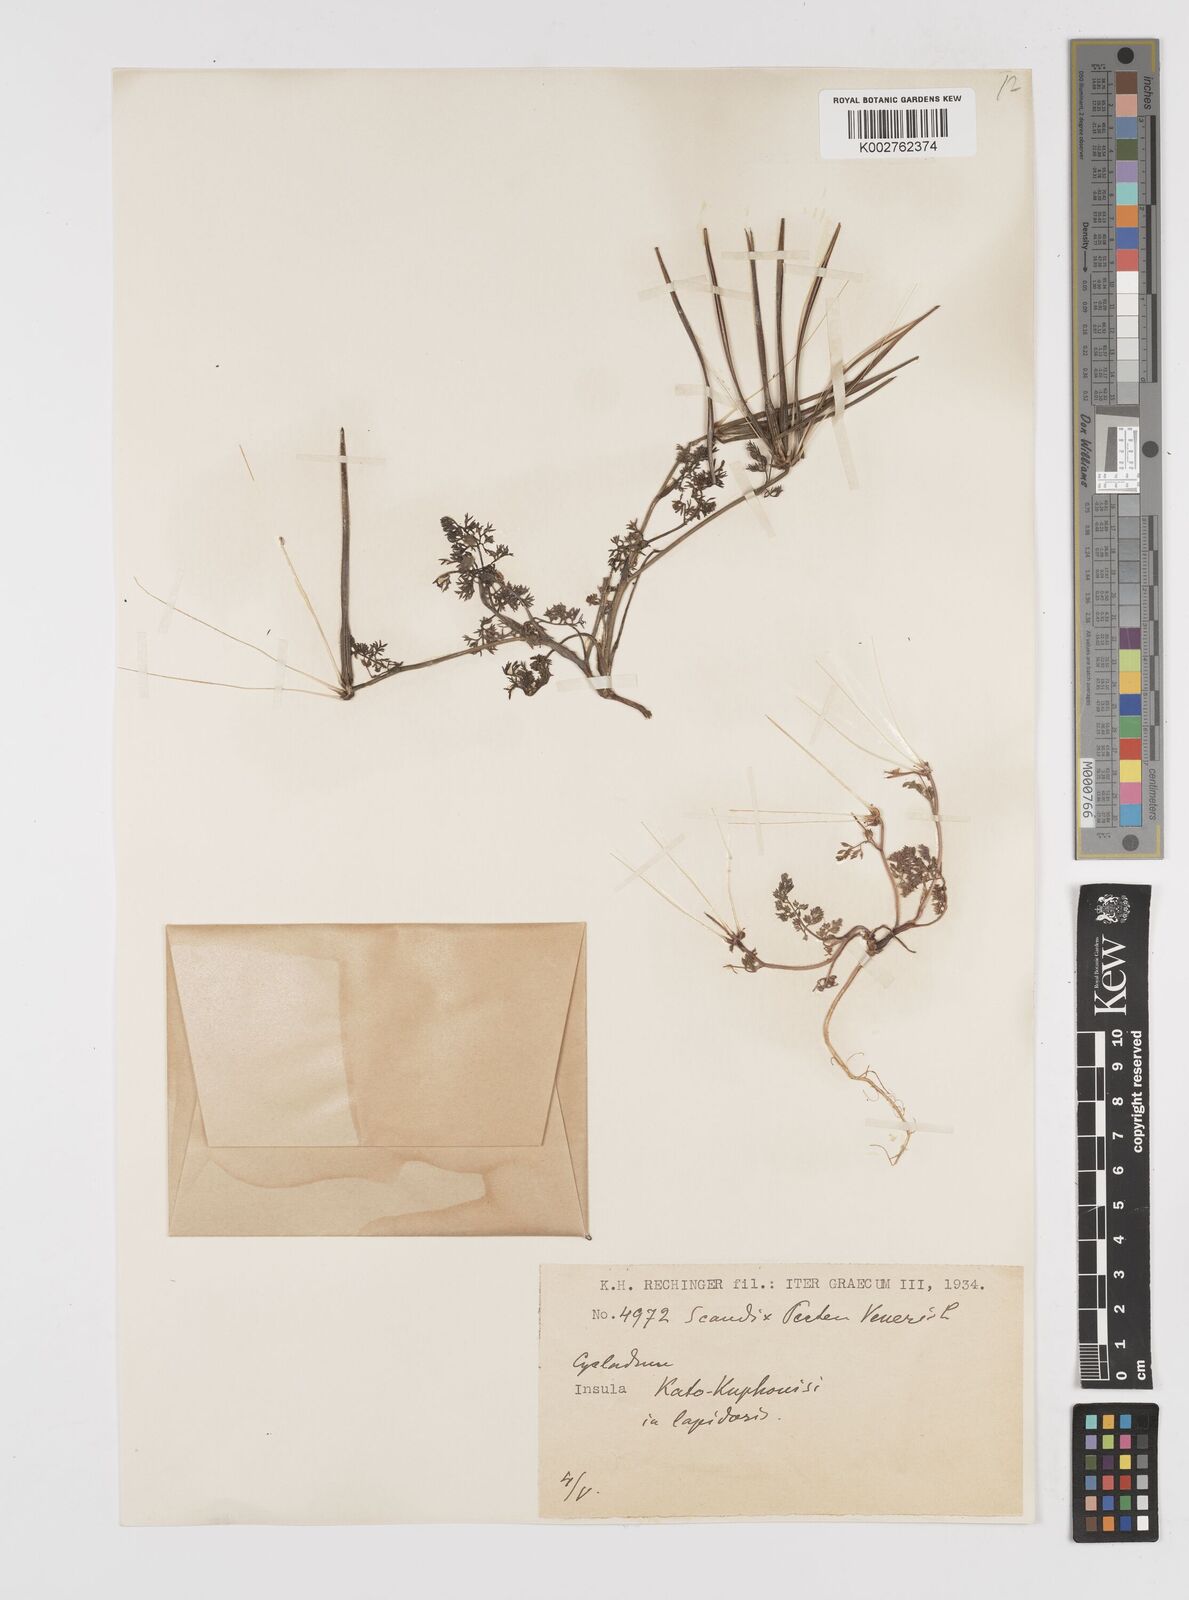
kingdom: Plantae
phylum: Tracheophyta
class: Magnoliopsida
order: Apiales
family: Apiaceae
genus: Scandix
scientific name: Scandix pecten-veneris
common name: Shepherd's-needle
